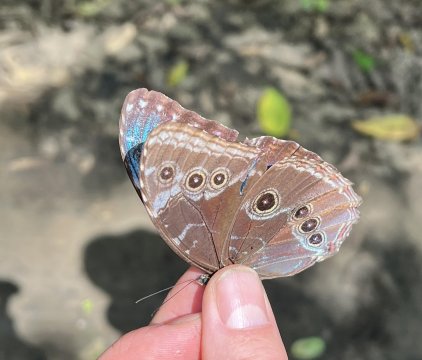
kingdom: Animalia
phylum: Arthropoda
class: Insecta
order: Lepidoptera
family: Nymphalidae
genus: Morpho
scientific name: Morpho helenor
